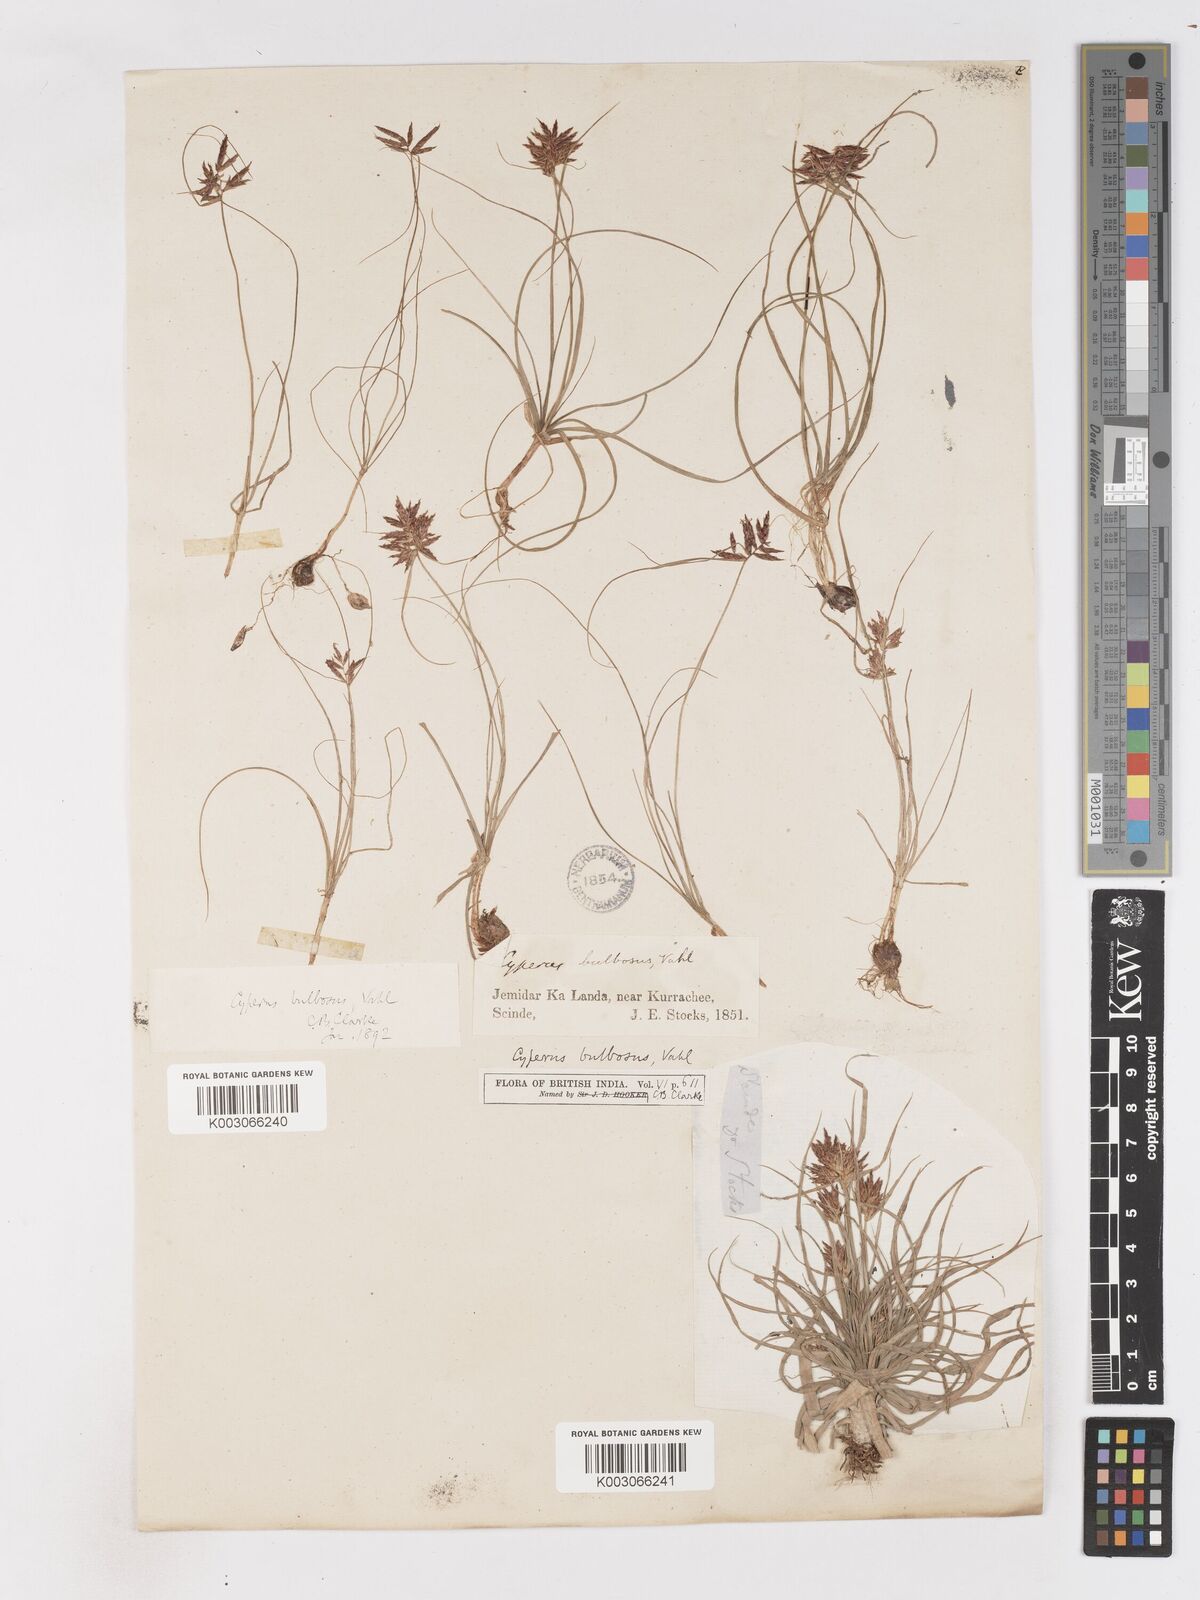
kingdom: Plantae
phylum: Tracheophyta
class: Liliopsida
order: Poales
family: Cyperaceae
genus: Cyperus
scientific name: Cyperus bulbosus
